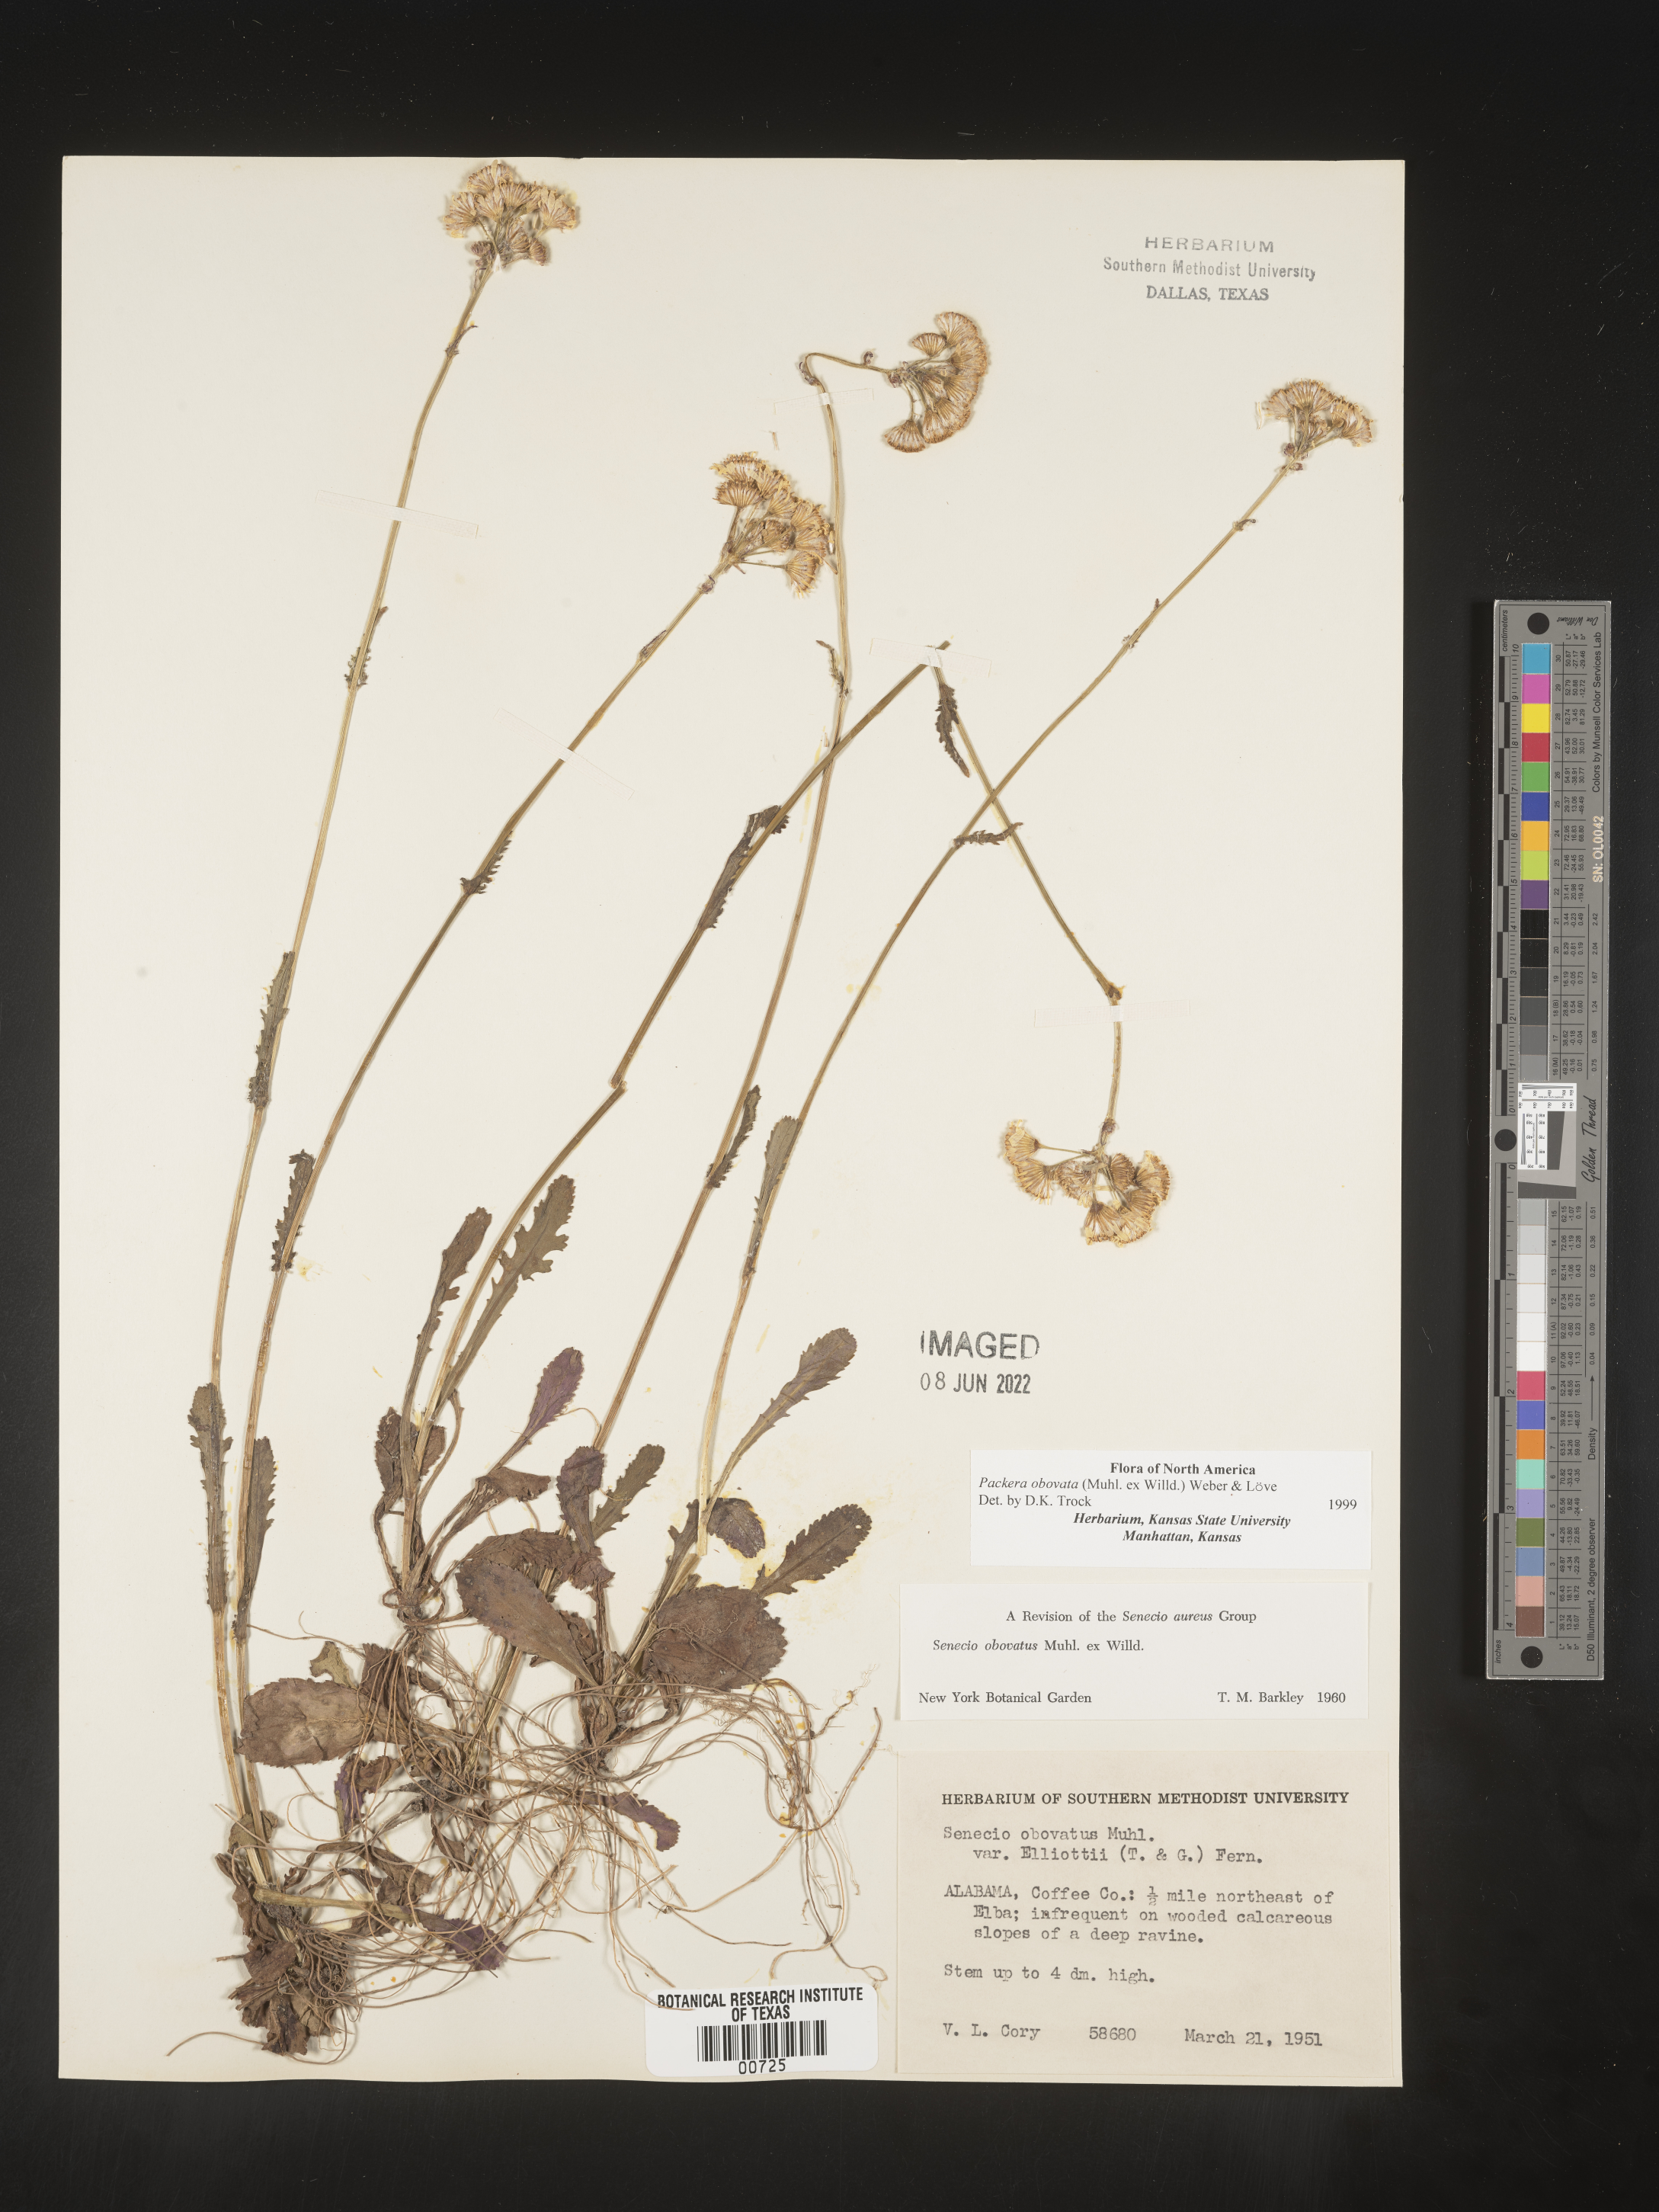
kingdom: Plantae
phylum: Tracheophyta
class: Magnoliopsida
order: Asterales
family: Asteraceae
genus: Packera
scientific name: Packera obovata
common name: Round-leaf ragwort
